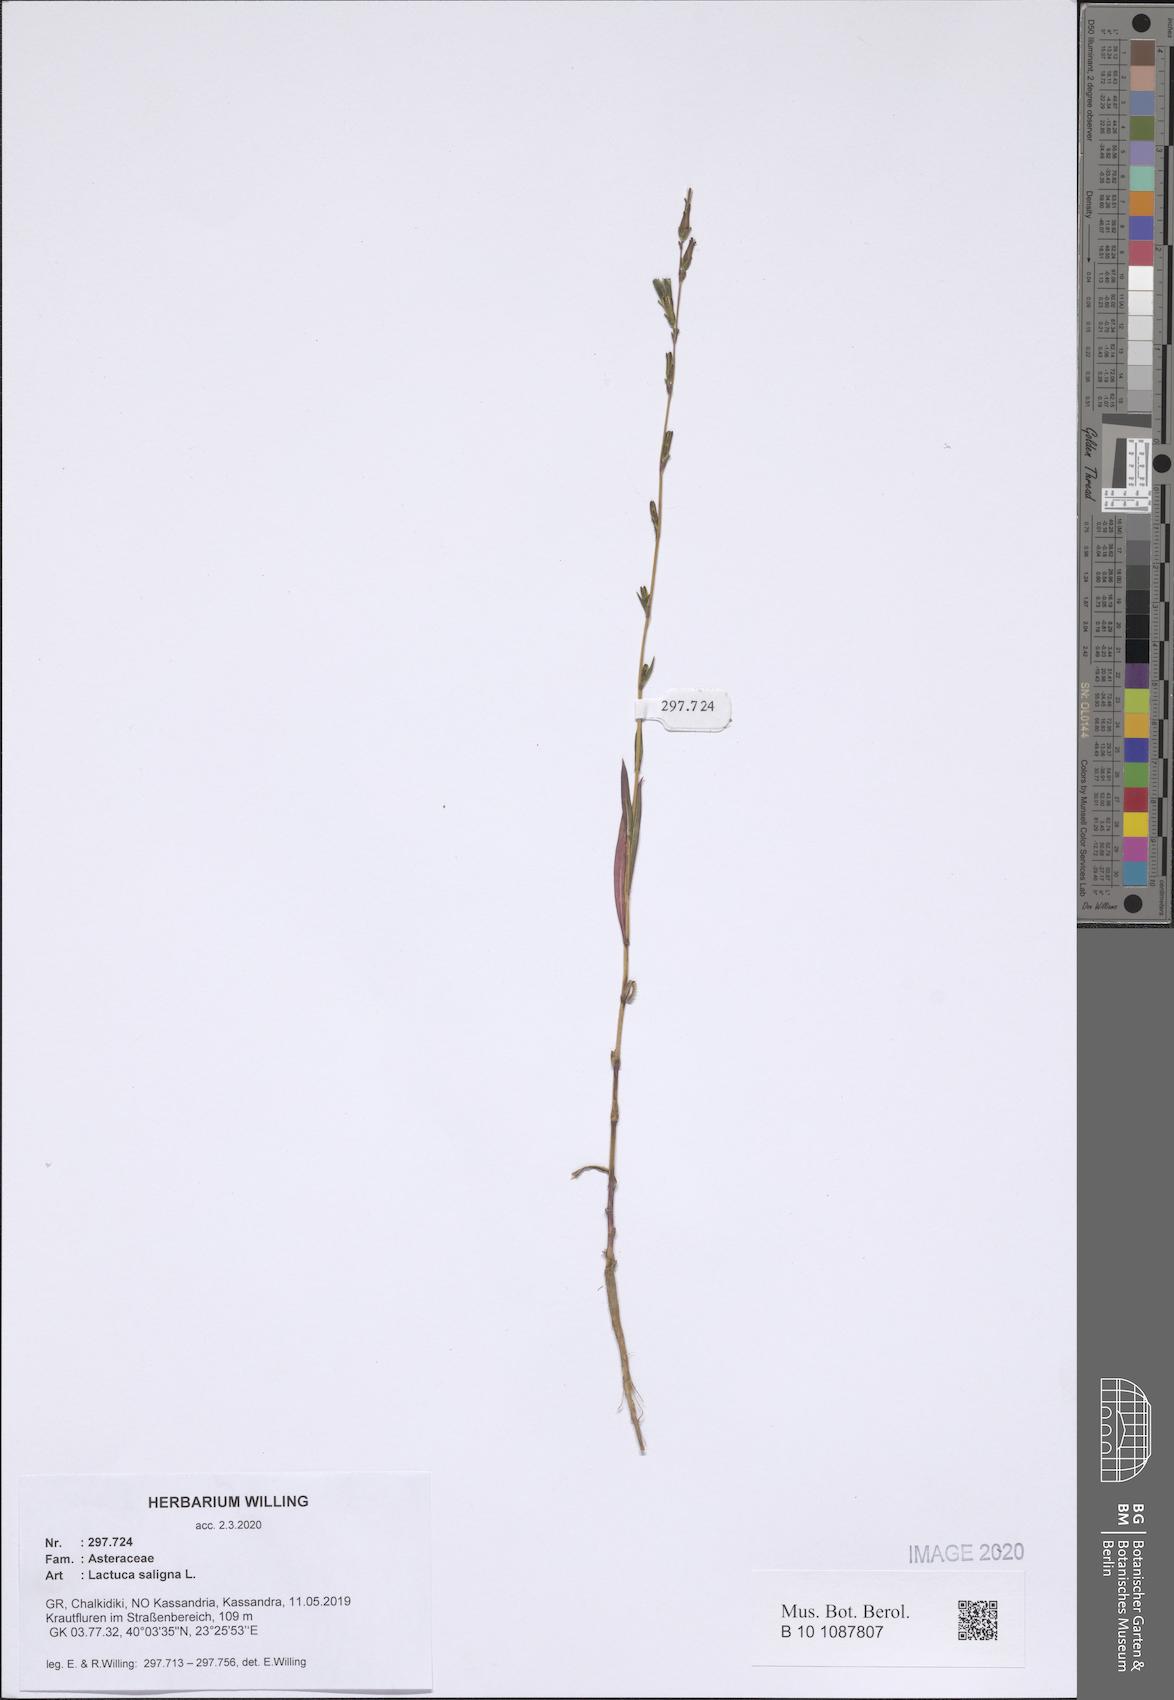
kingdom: Plantae
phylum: Tracheophyta
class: Magnoliopsida
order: Asterales
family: Asteraceae
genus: Lactuca
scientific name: Lactuca saligna
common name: Wild lettuce
